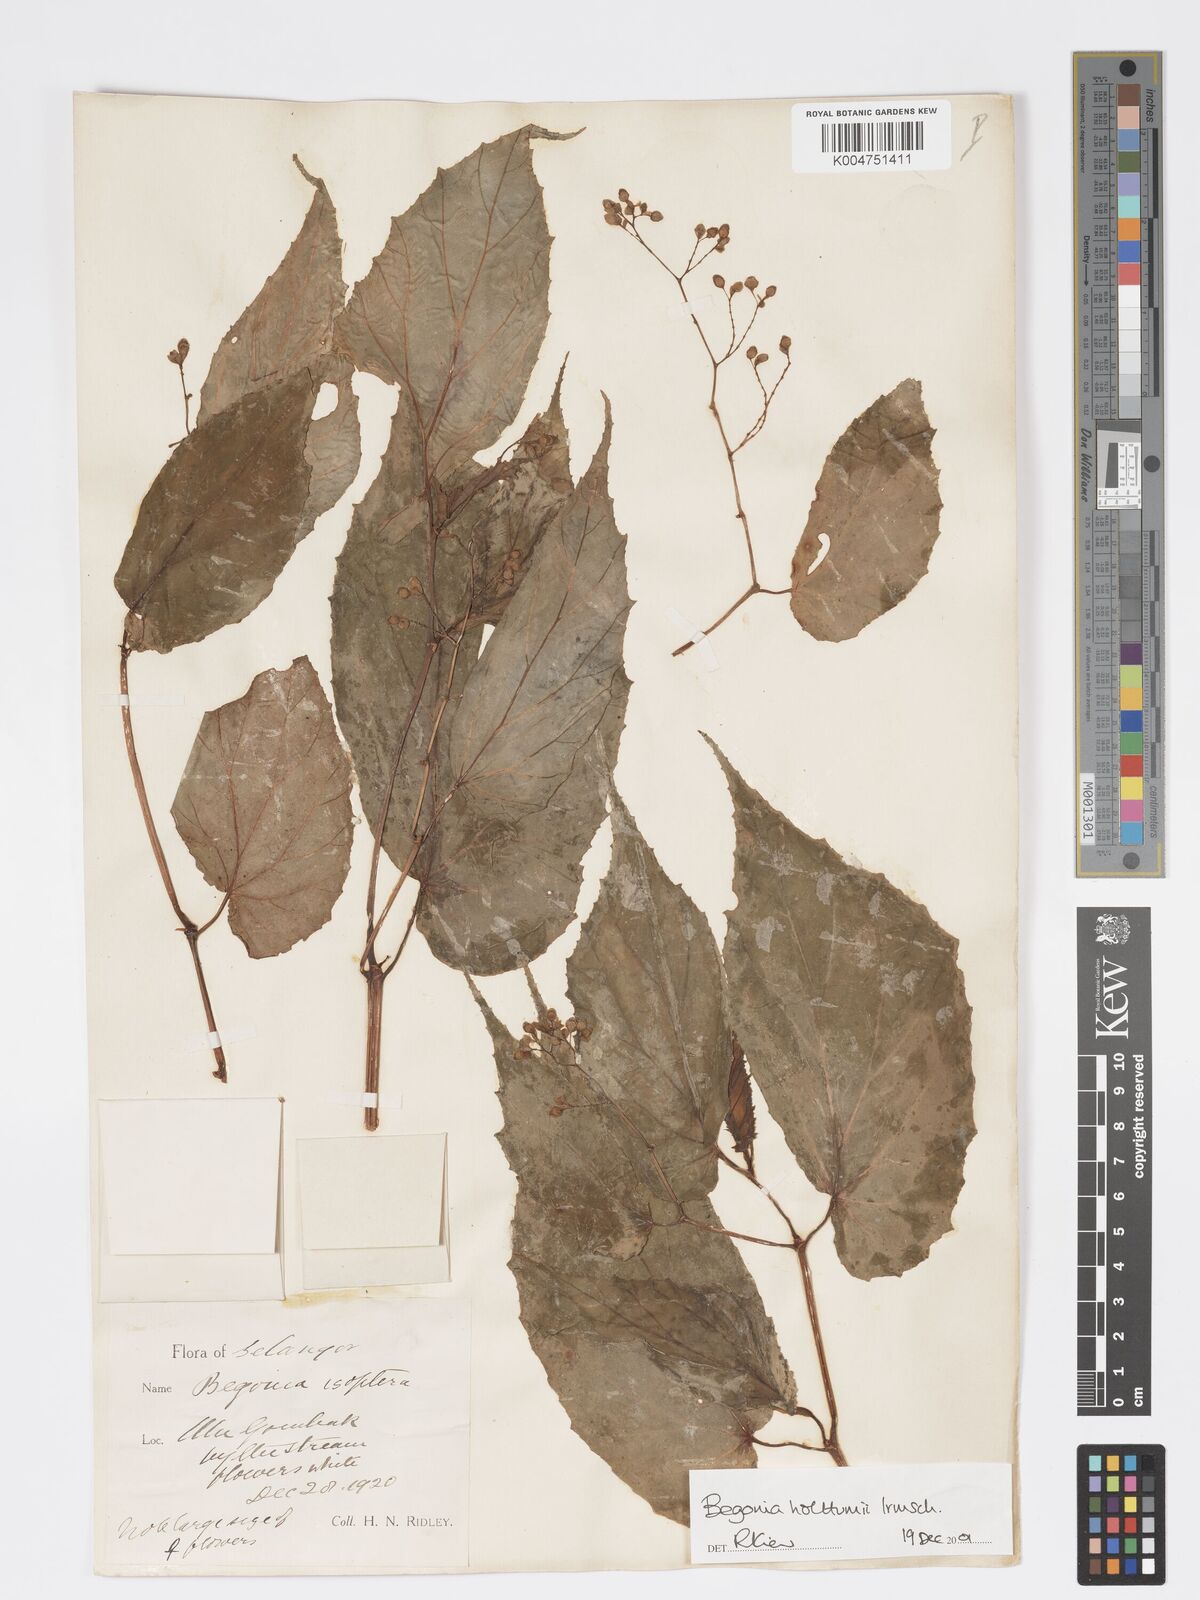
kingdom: Plantae
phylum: Tracheophyta
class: Magnoliopsida
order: Cucurbitales
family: Begoniaceae
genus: Begonia
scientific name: Begonia holttumii
